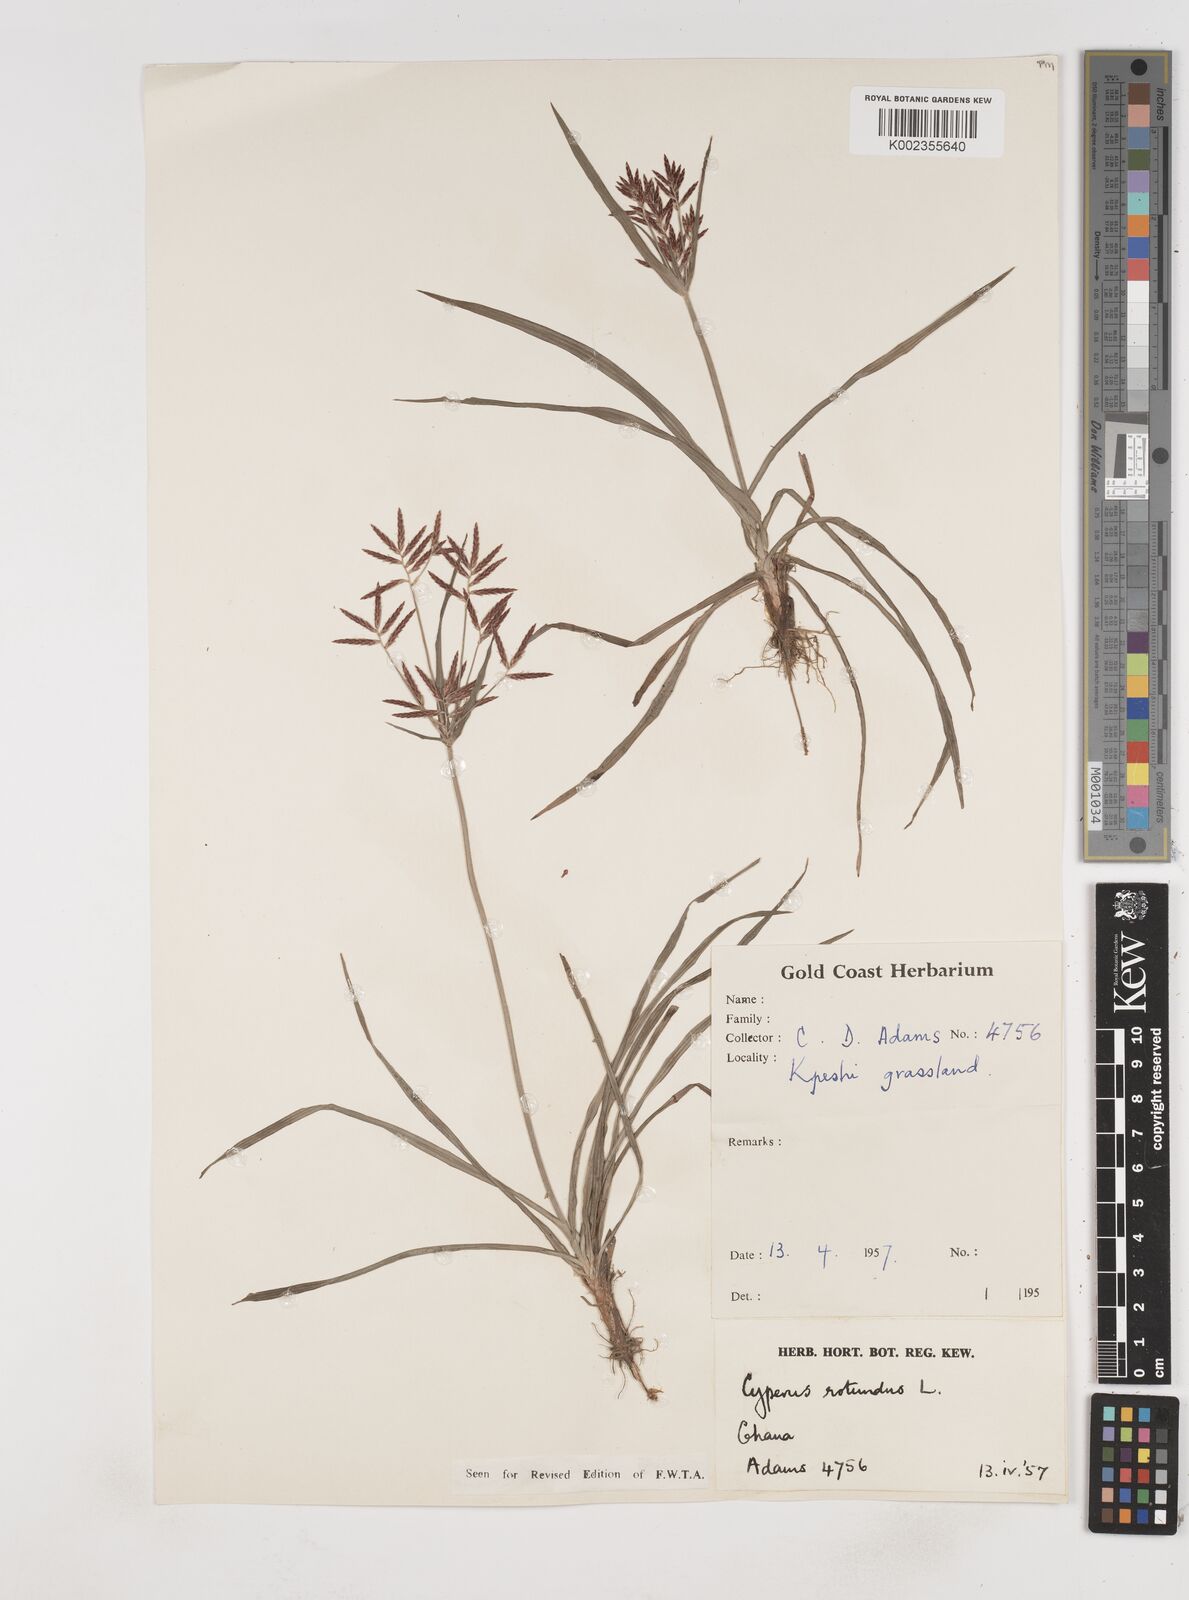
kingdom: Plantae
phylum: Tracheophyta
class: Liliopsida
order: Poales
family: Cyperaceae
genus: Cyperus
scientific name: Cyperus rotundus
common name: Nutgrass
